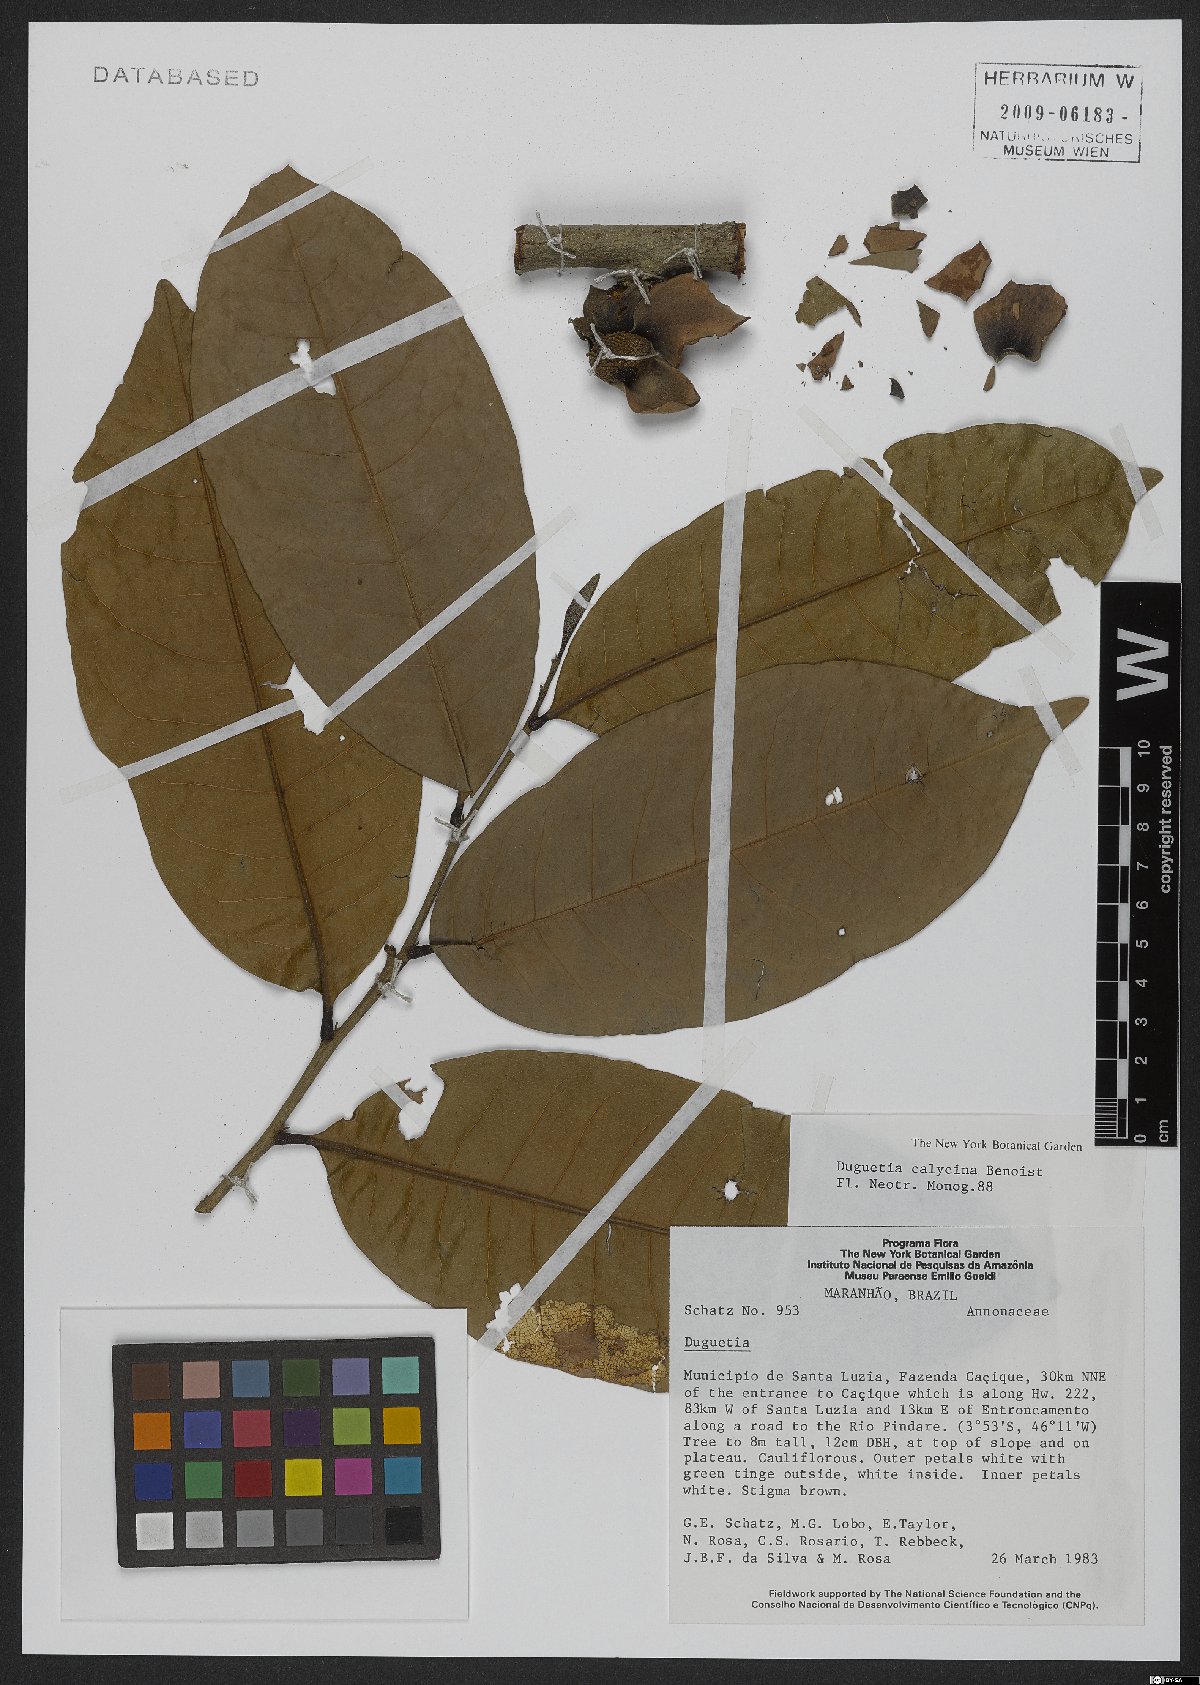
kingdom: Plantae
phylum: Tracheophyta
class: Magnoliopsida
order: Magnoliales
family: Annonaceae
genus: Duguetia
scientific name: Duguetia calycina
